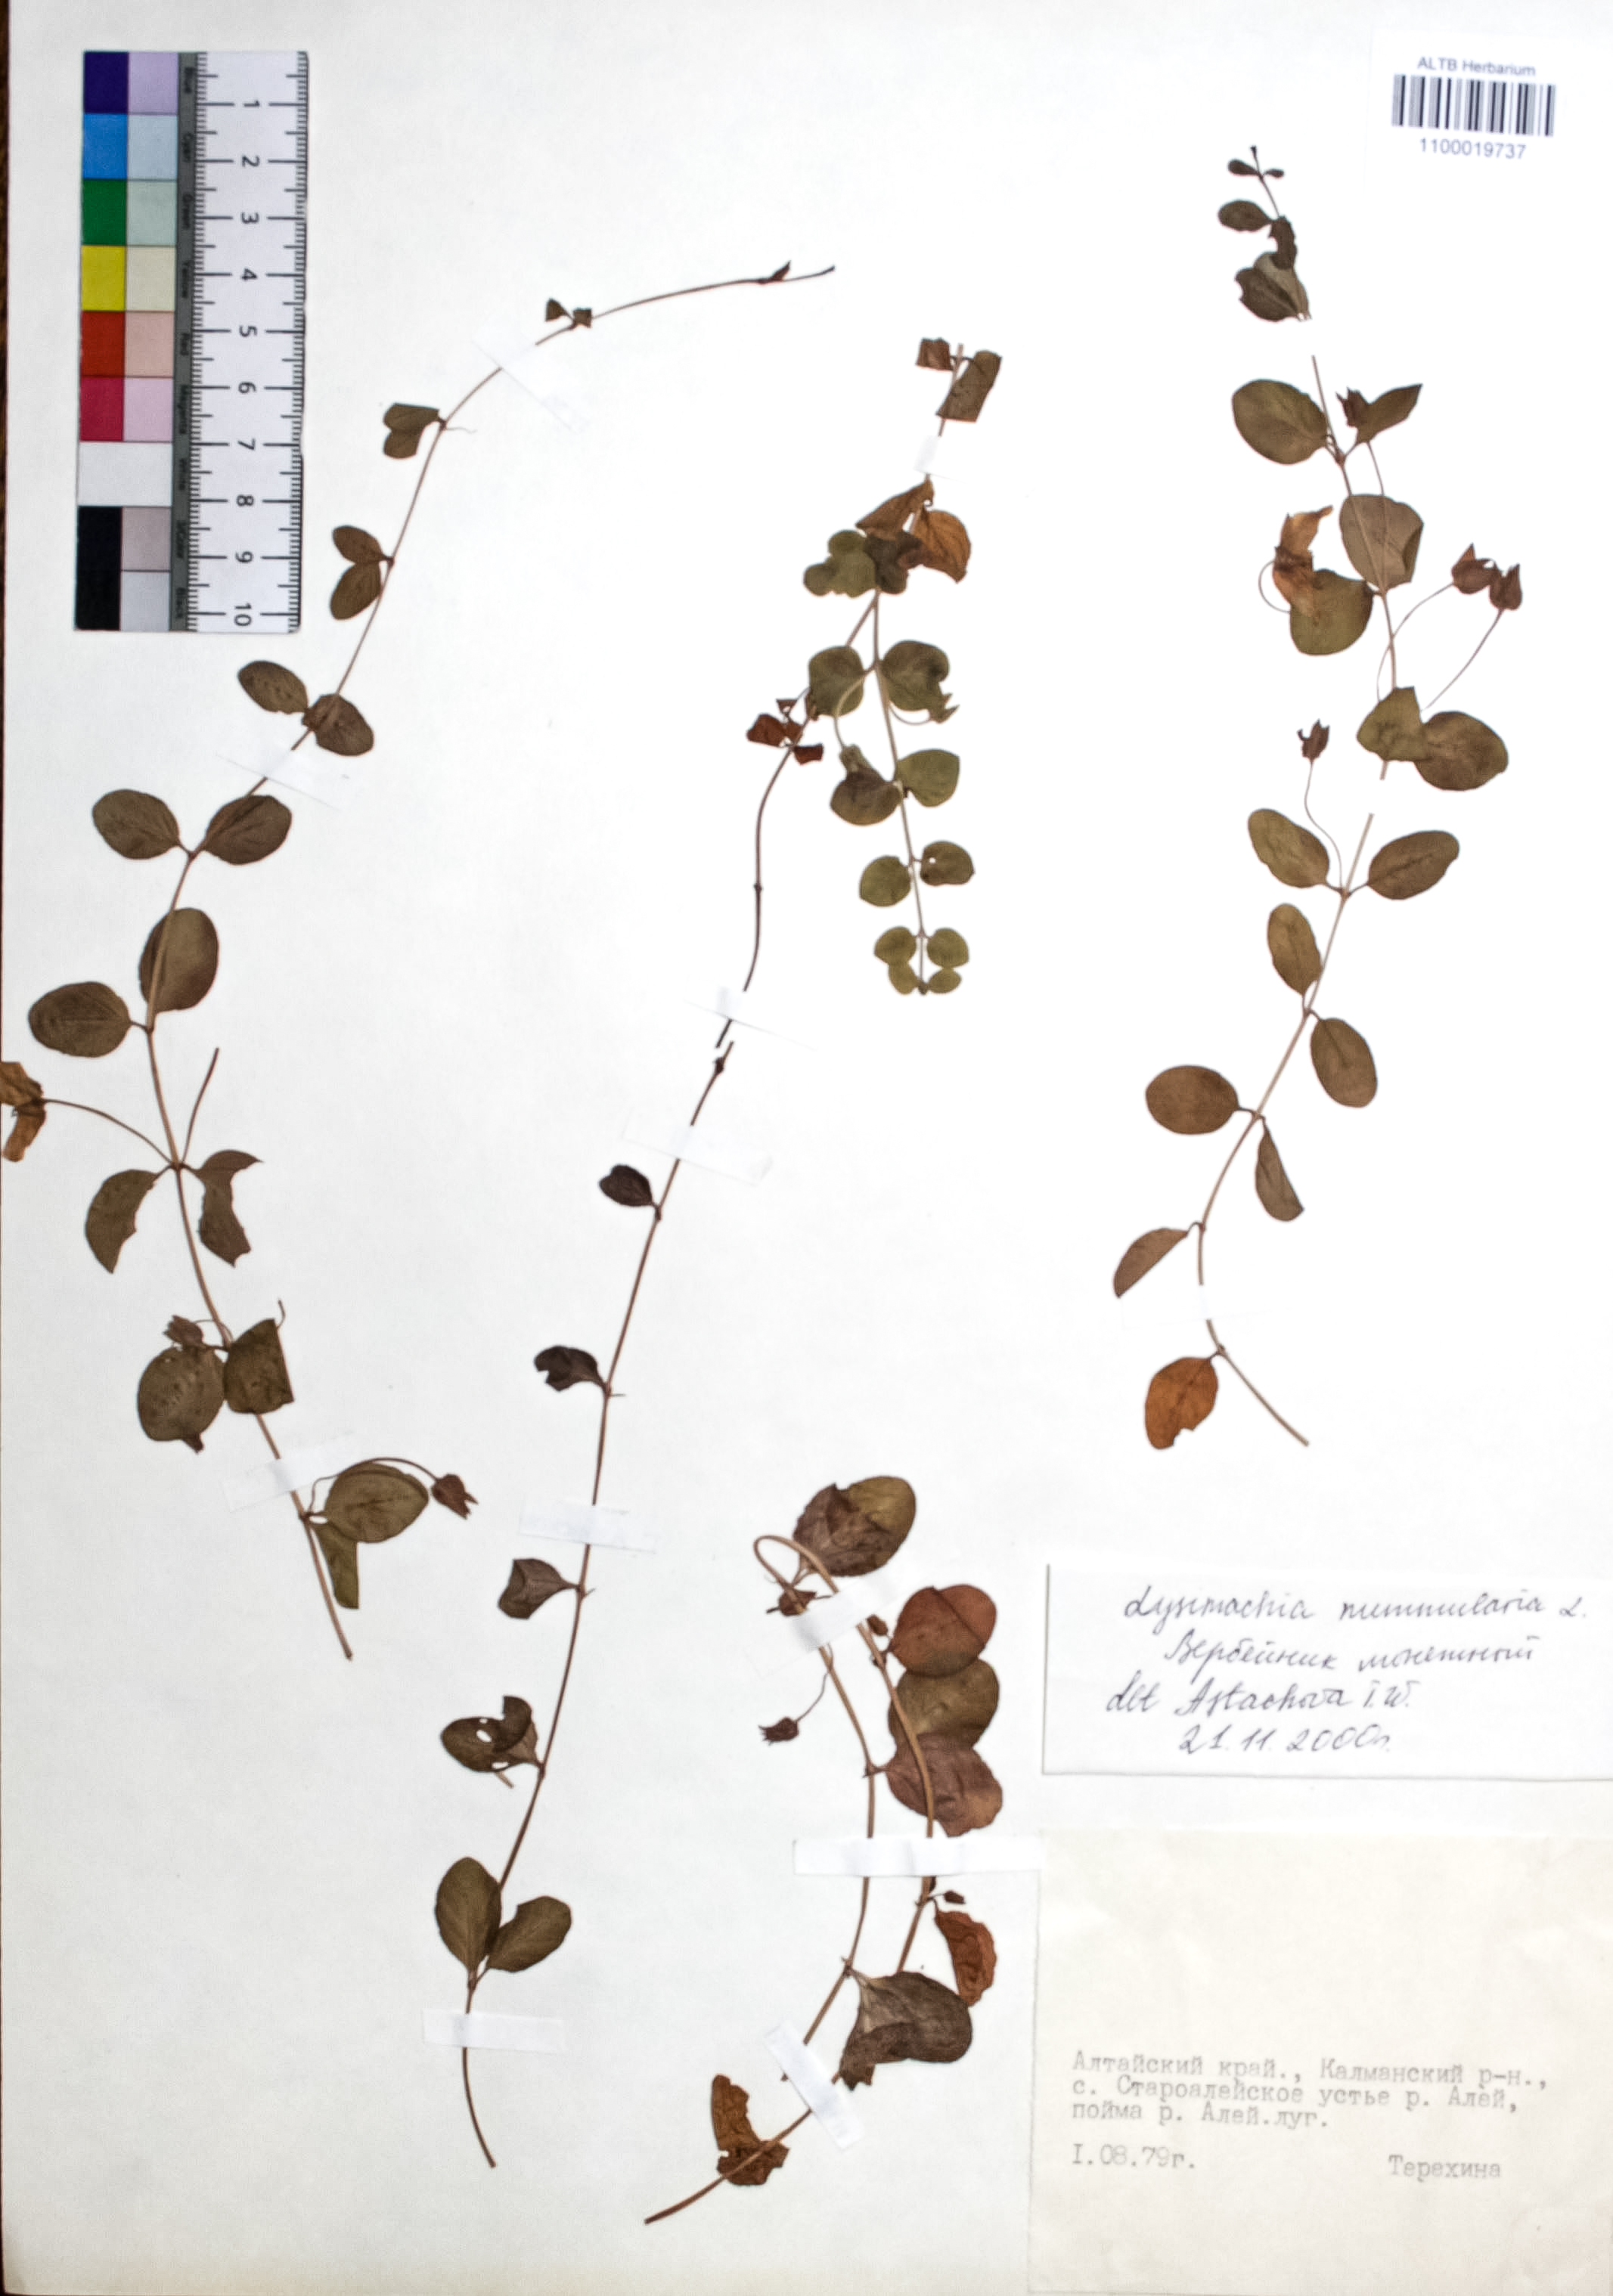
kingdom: Plantae
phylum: Tracheophyta
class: Magnoliopsida
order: Ericales
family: Primulaceae
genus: Lysimachia
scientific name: Lysimachia nummularia
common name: Moneywort
